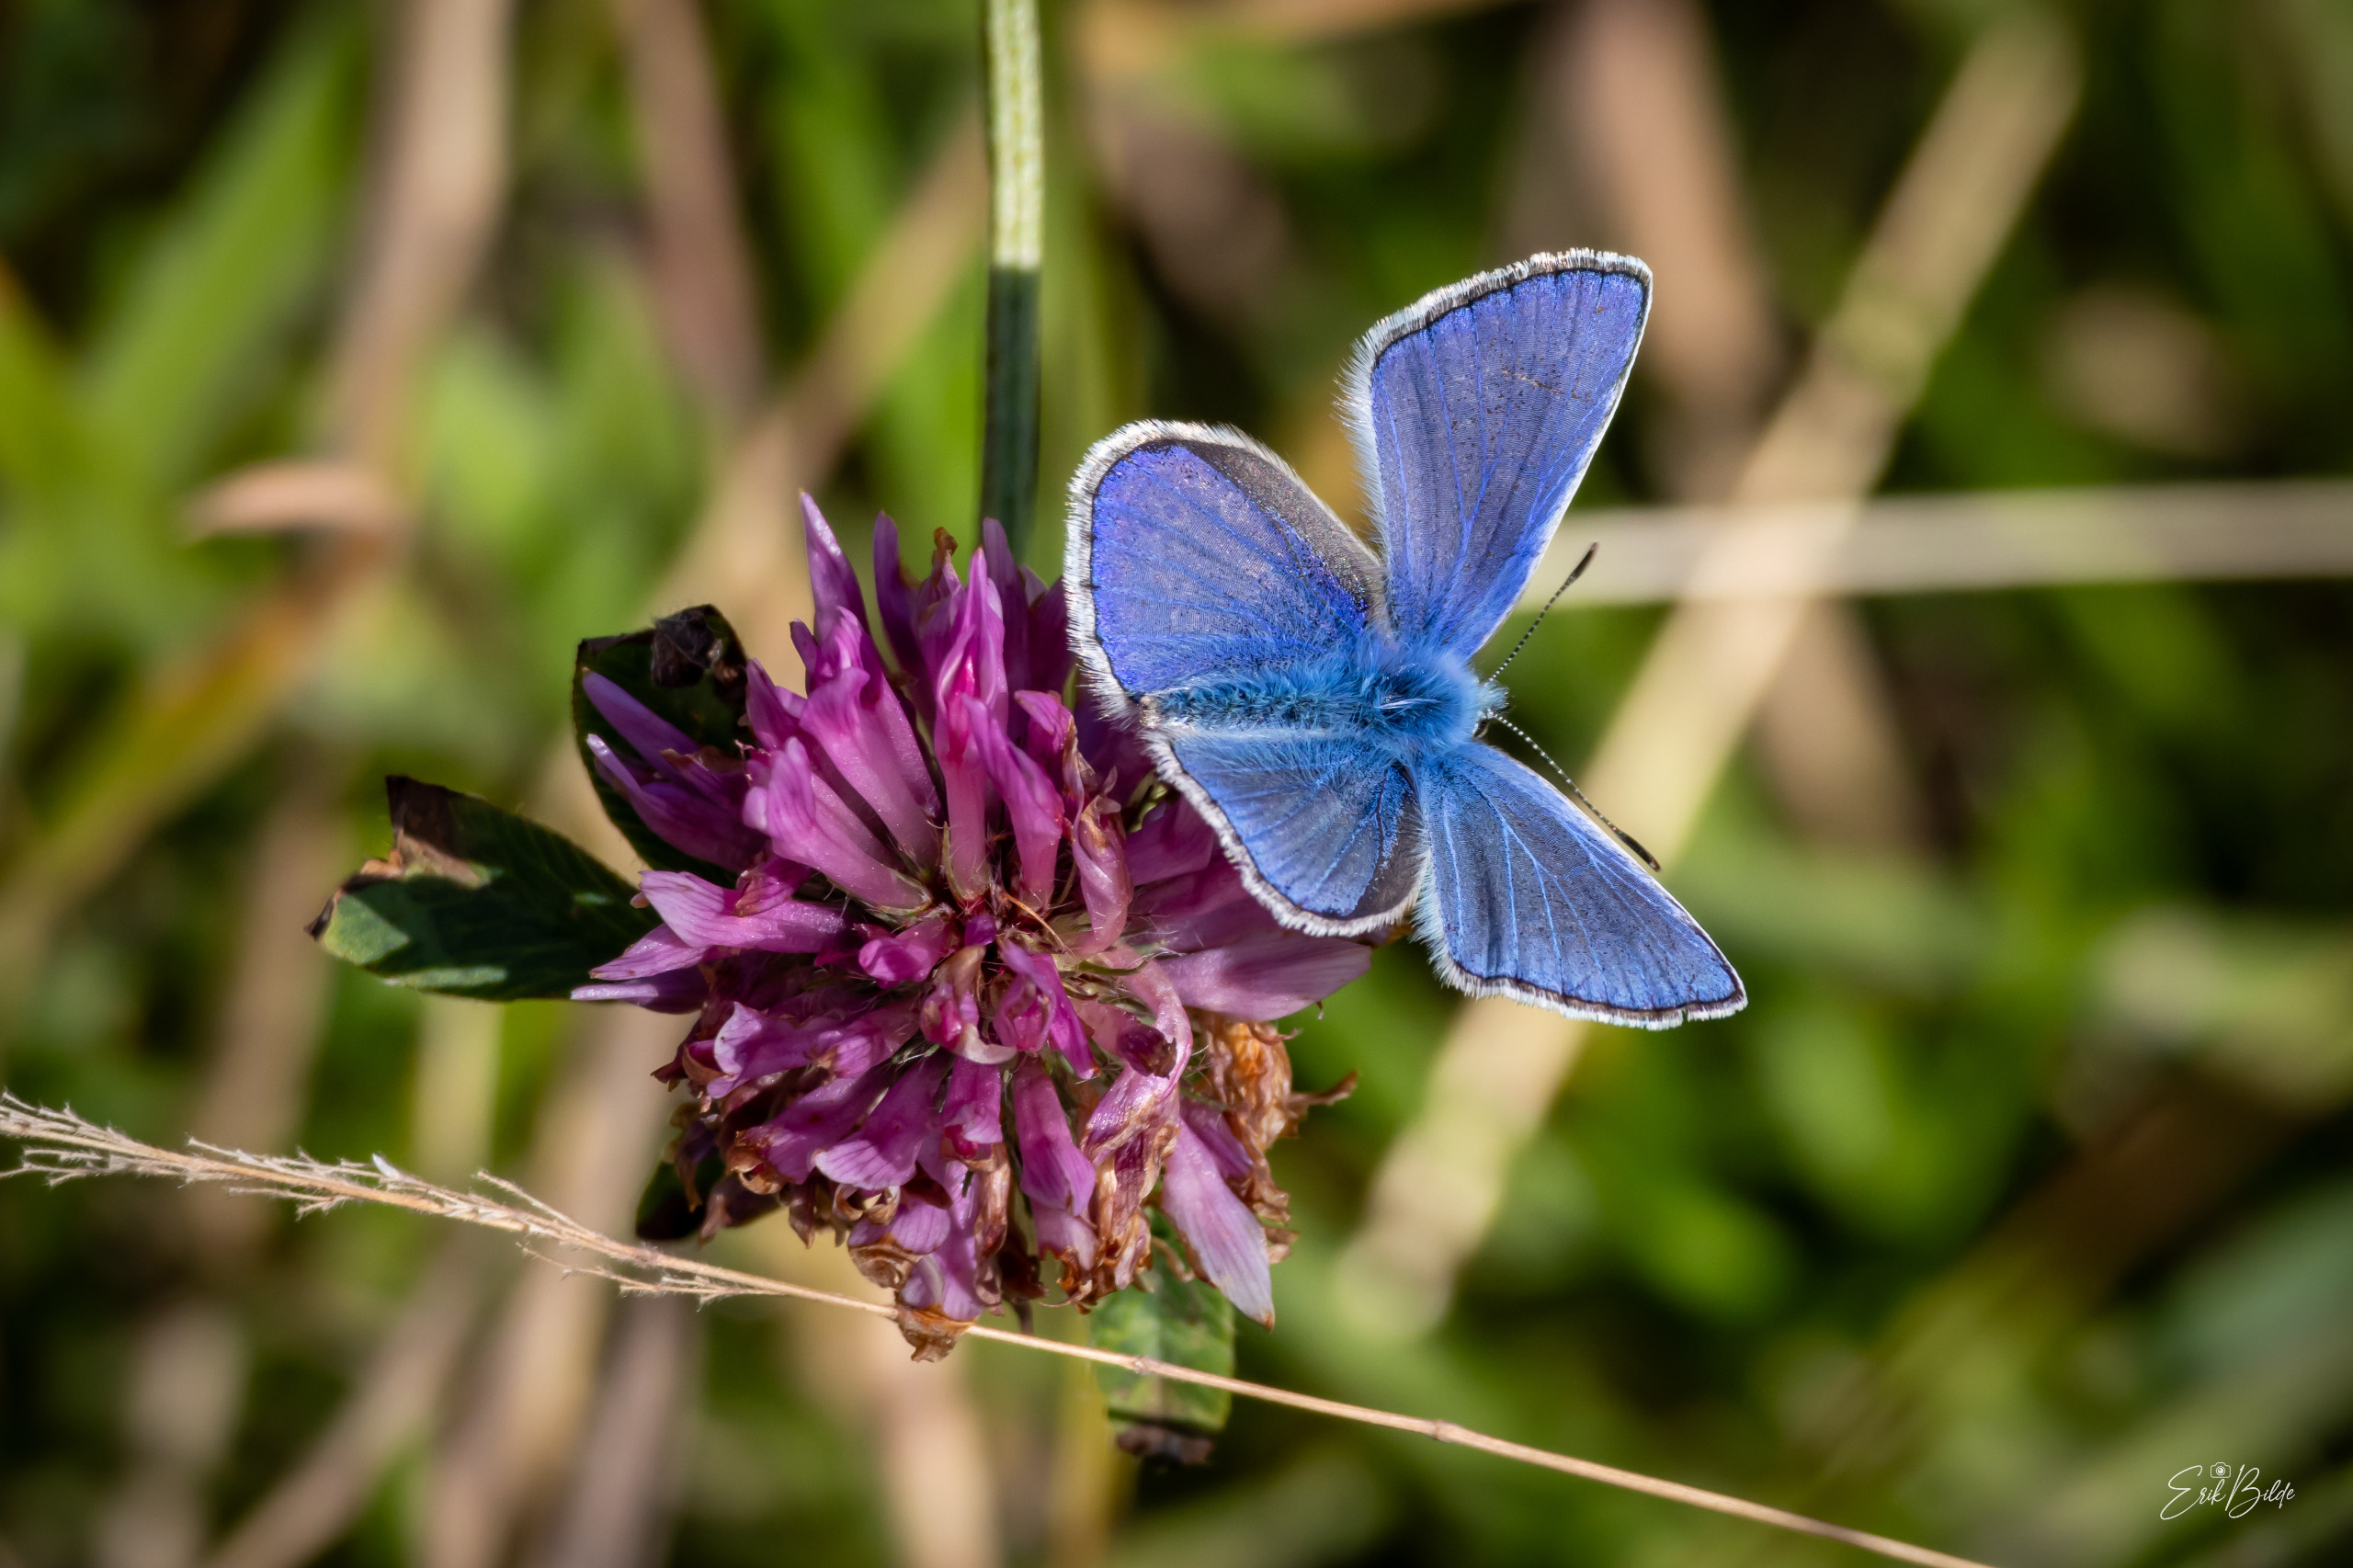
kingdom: Animalia
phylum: Arthropoda
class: Insecta
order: Lepidoptera
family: Lycaenidae
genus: Polyommatus
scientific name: Polyommatus icarus
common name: Almindelig blåfugl
